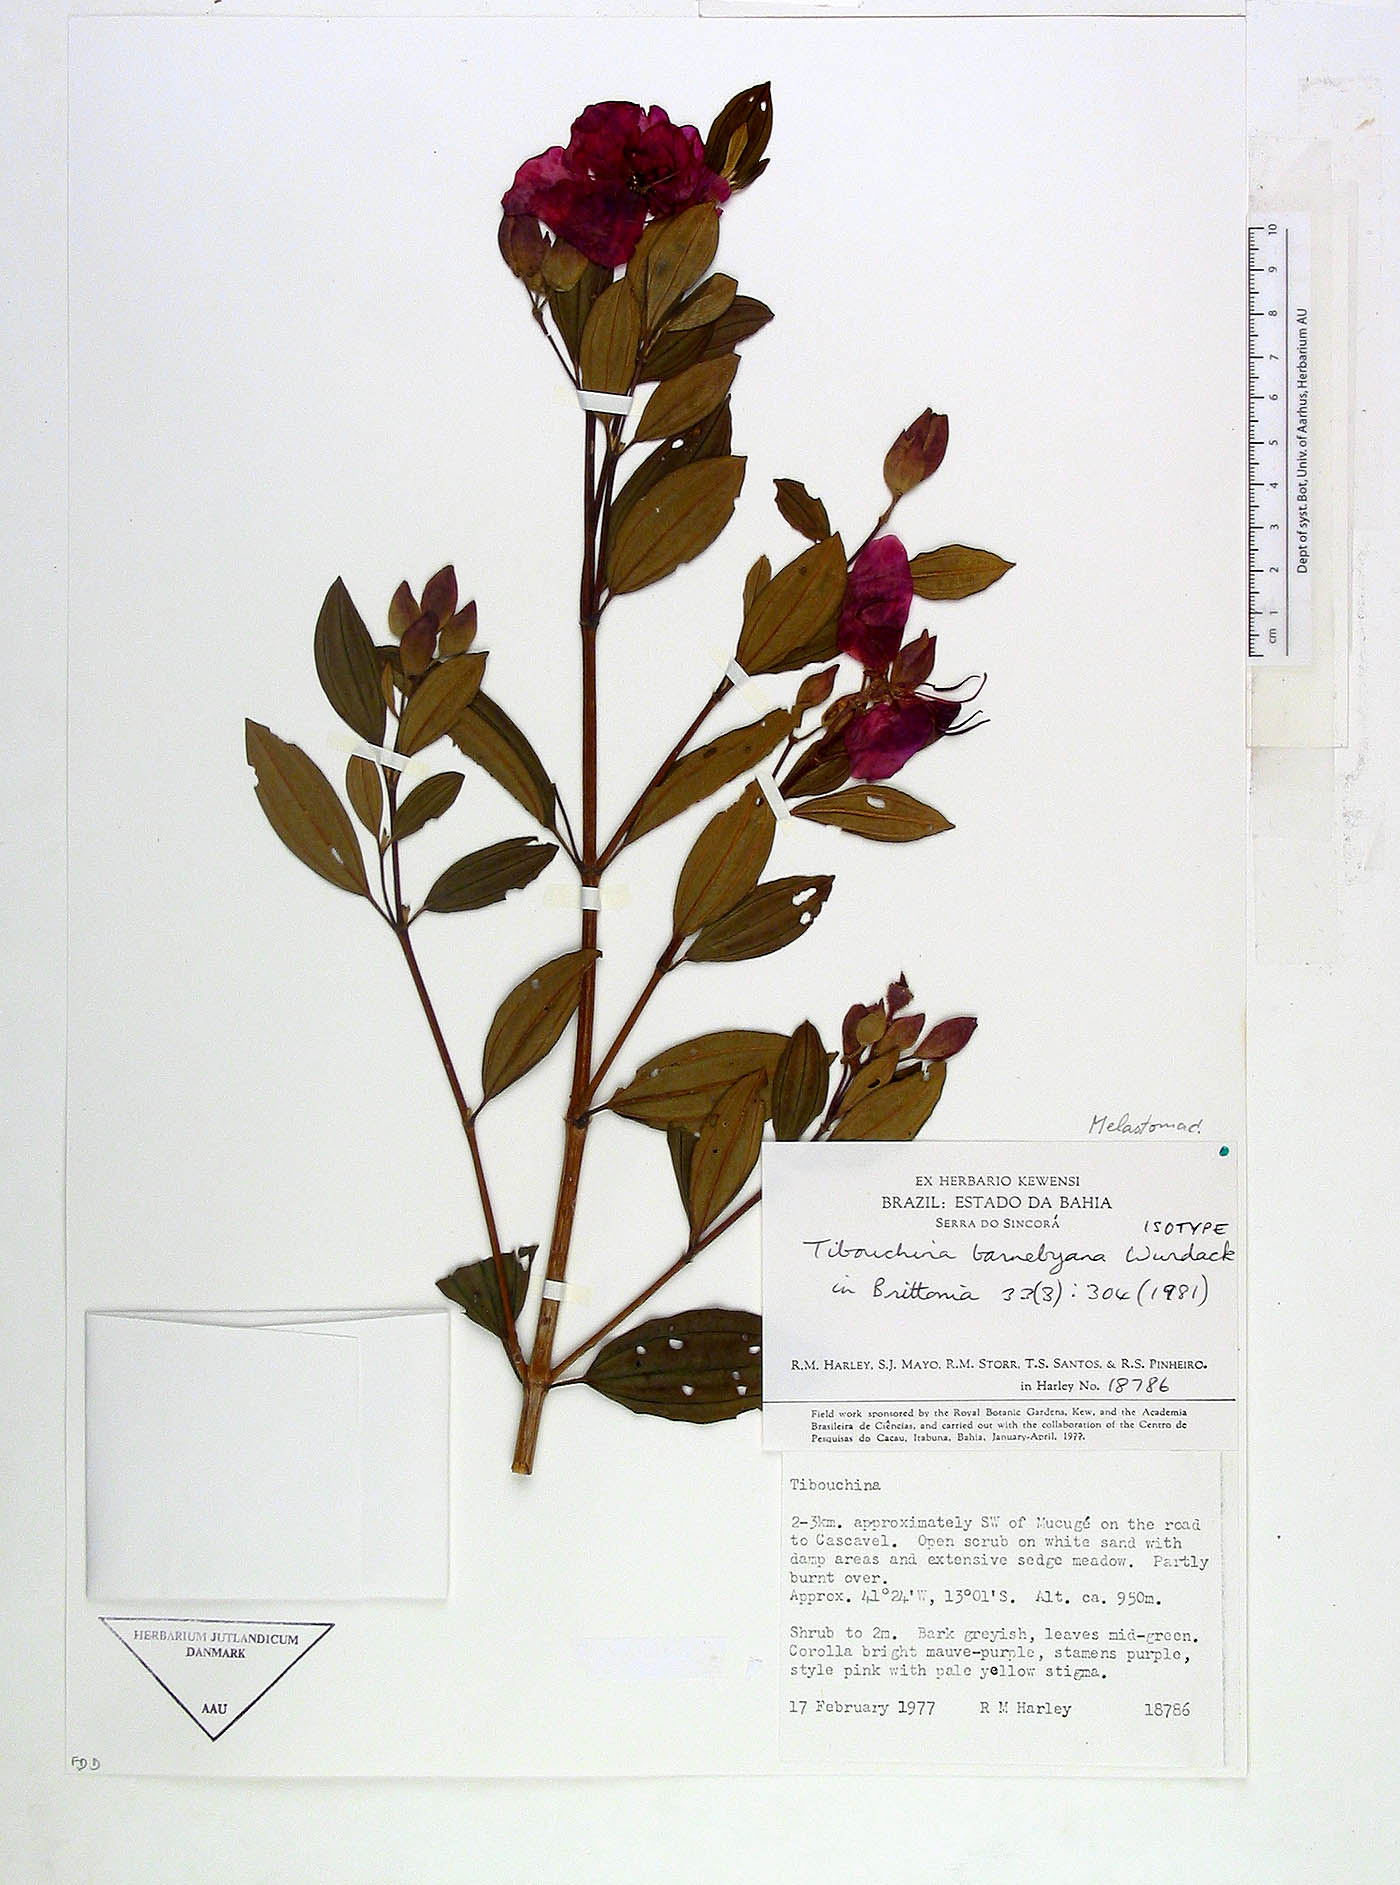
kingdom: Plantae
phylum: Tracheophyta
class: Magnoliopsida
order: Myrtales
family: Melastomataceae
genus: Pleroma
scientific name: Pleroma barnebyanum
